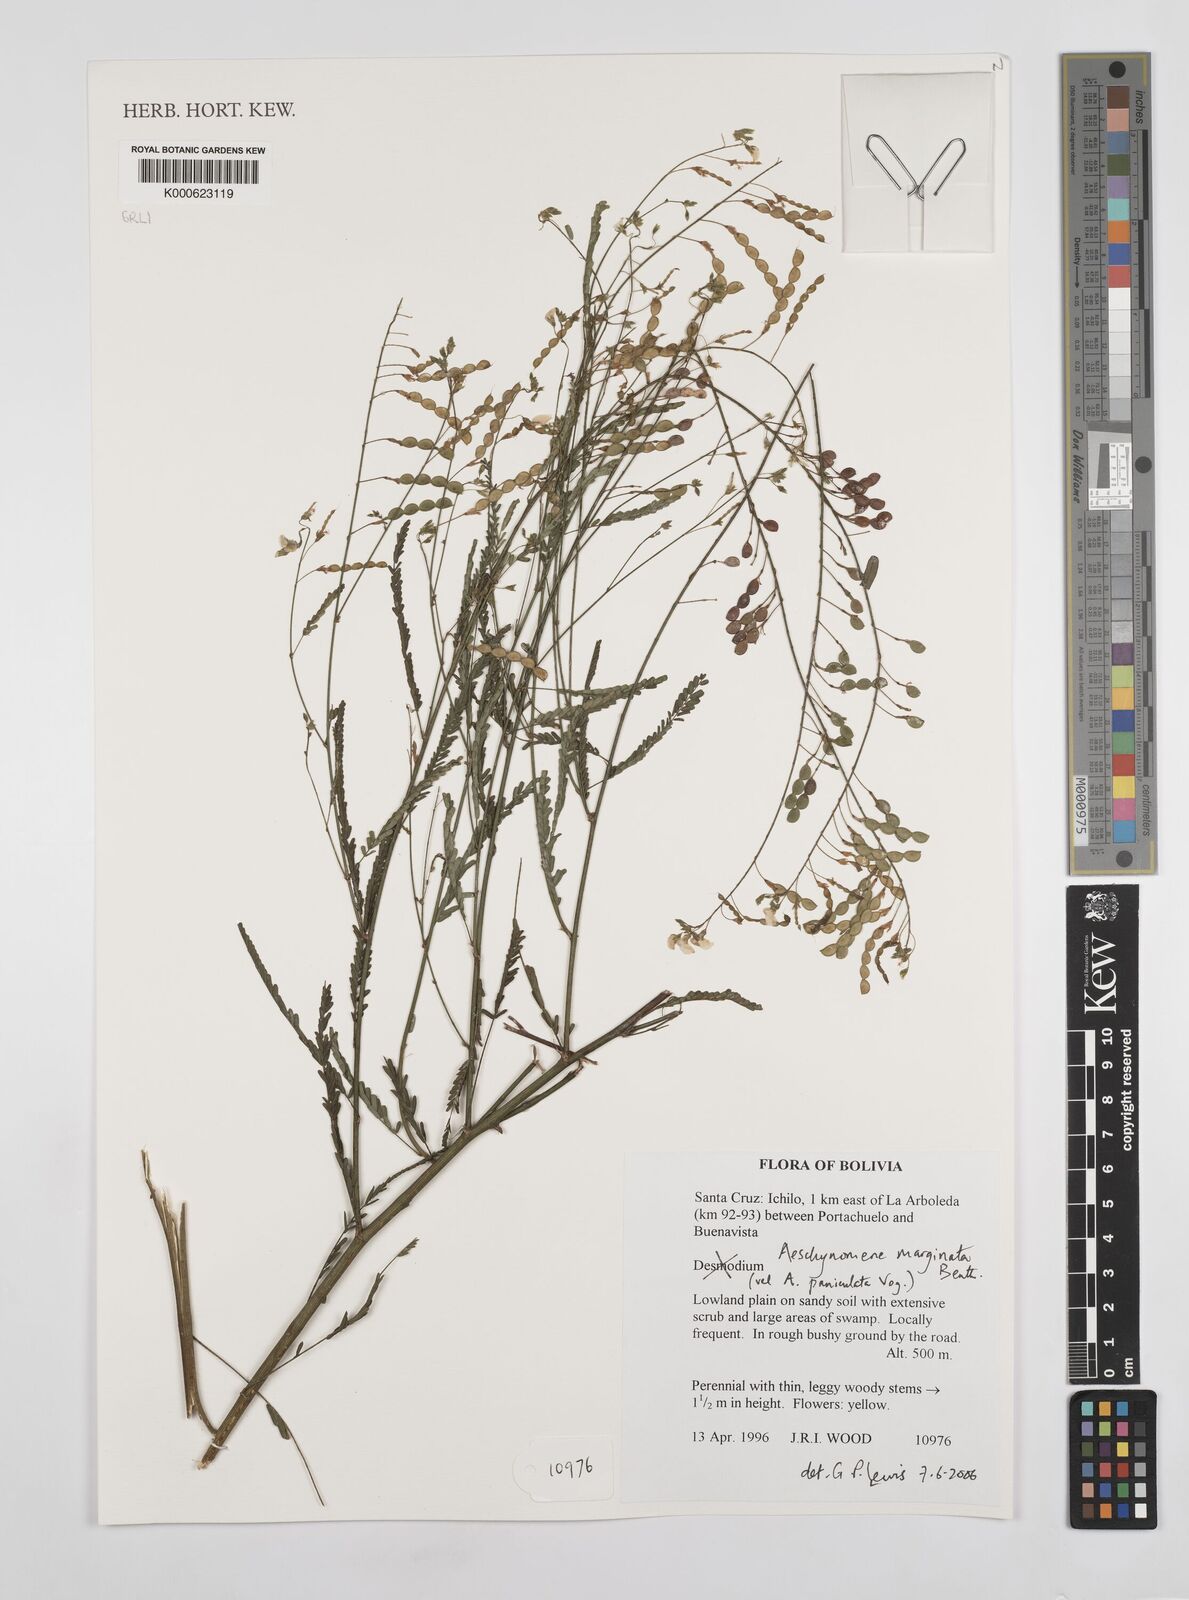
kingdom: Plantae
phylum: Tracheophyta
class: Magnoliopsida
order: Fabales
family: Fabaceae
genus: Ctenodon
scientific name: Ctenodon marginatus
